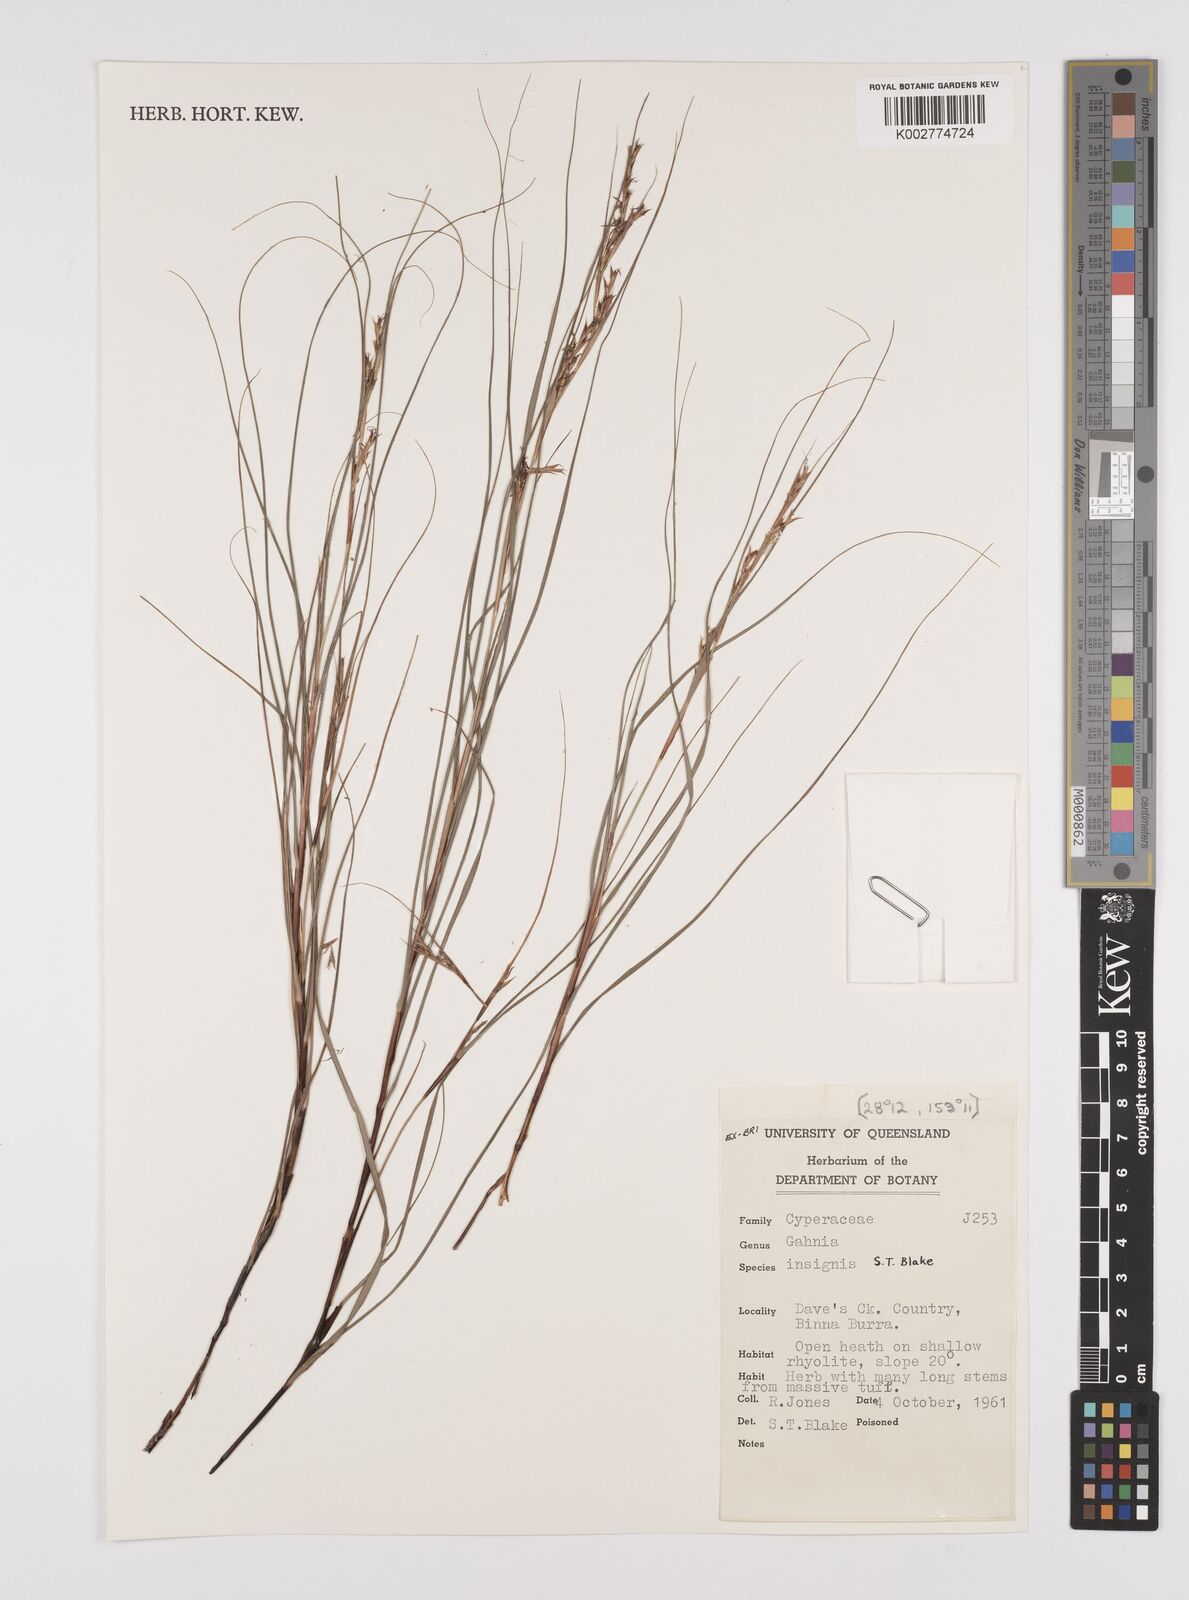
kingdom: Plantae
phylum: Tracheophyta
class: Liliopsida
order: Poales
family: Cyperaceae
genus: Gahnia
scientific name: Gahnia insignis
